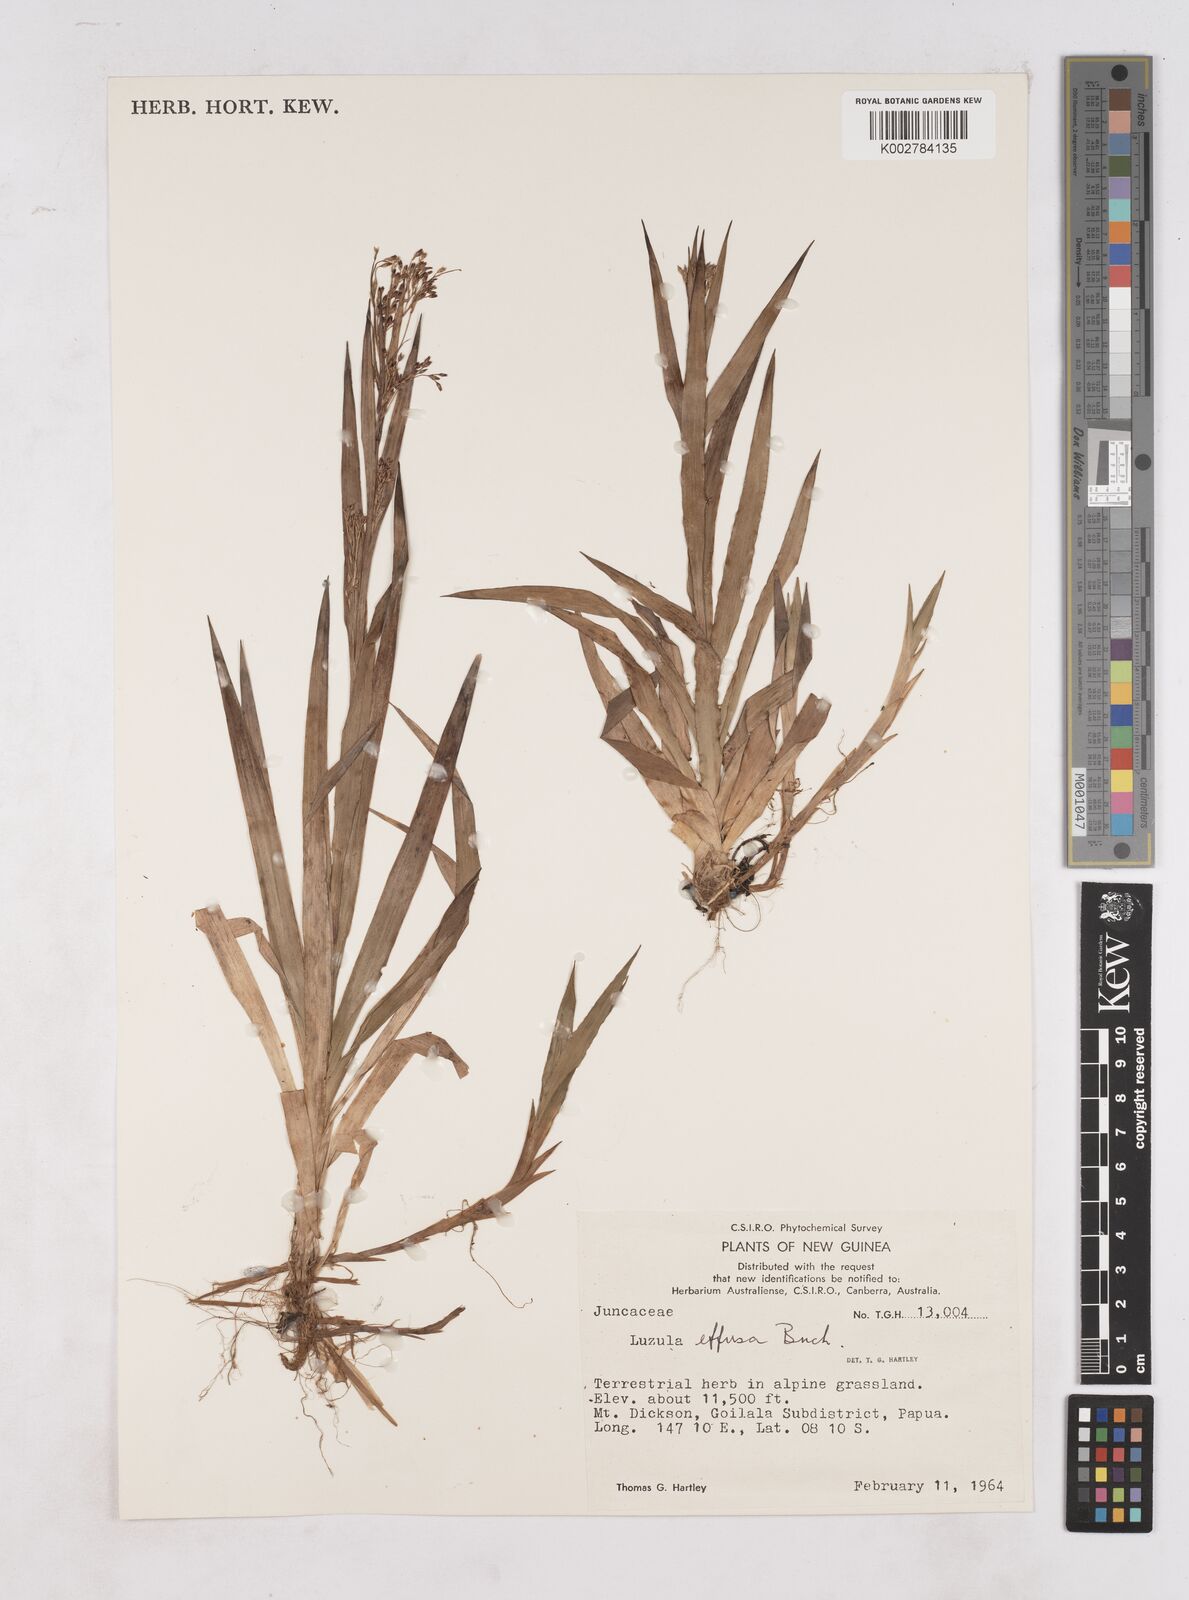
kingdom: Plantae
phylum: Tracheophyta
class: Liliopsida
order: Poales
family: Juncaceae
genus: Luzula
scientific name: Luzula effusa
